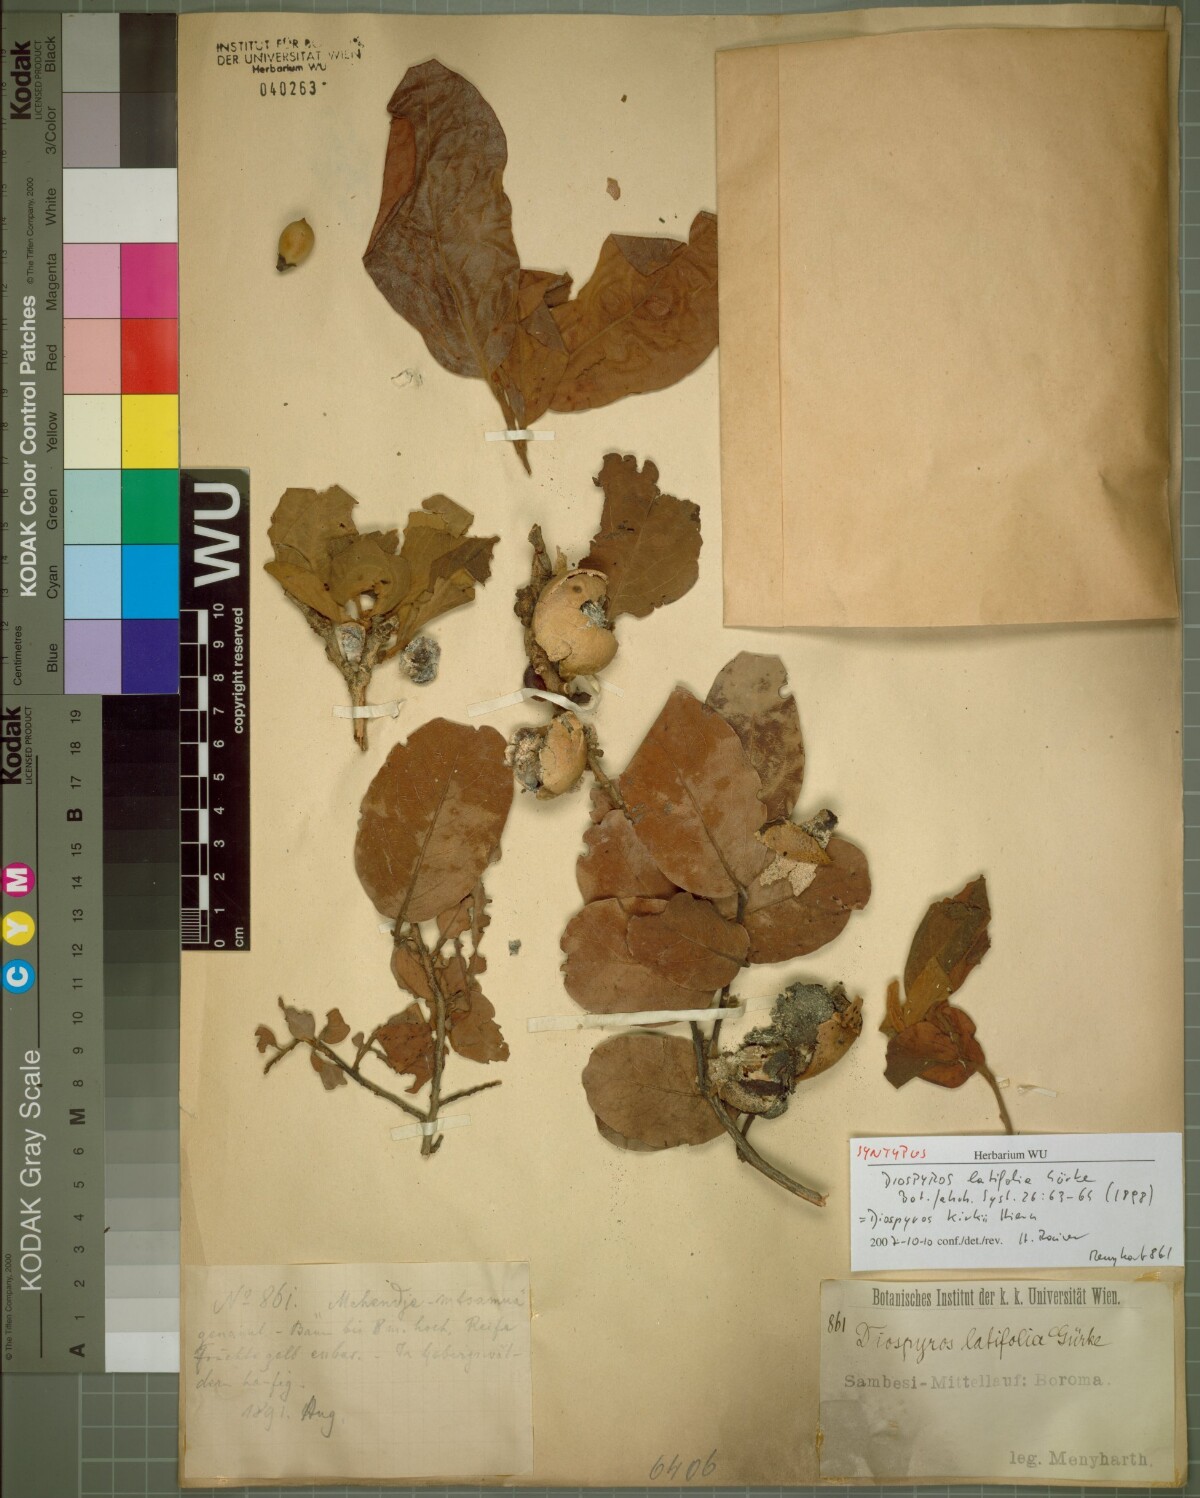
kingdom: Plantae
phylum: Tracheophyta
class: Magnoliopsida
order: Ericales
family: Ebenaceae
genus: Diospyros
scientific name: Diospyros kirkii
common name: Large-leaved jackal berry
